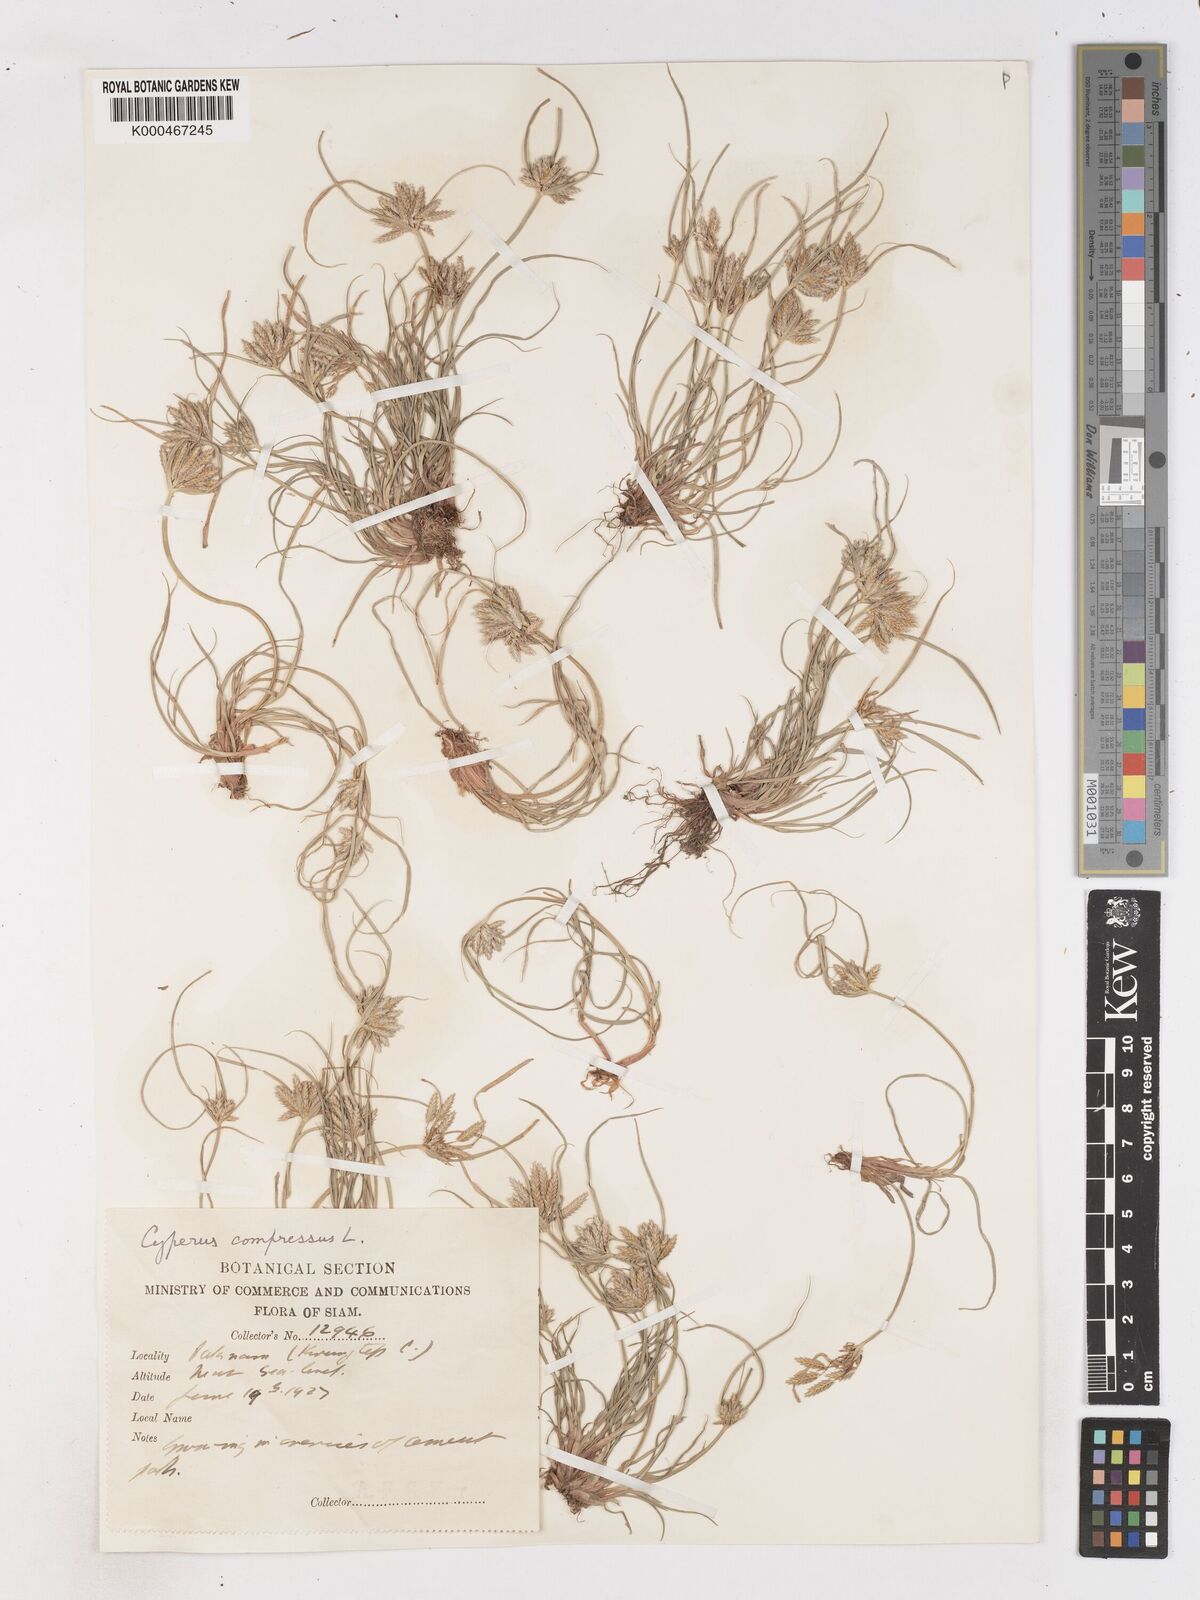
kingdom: Plantae
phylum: Tracheophyta
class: Liliopsida
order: Poales
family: Cyperaceae
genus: Cyperus
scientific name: Cyperus compressus
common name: Poorland flatsedge
